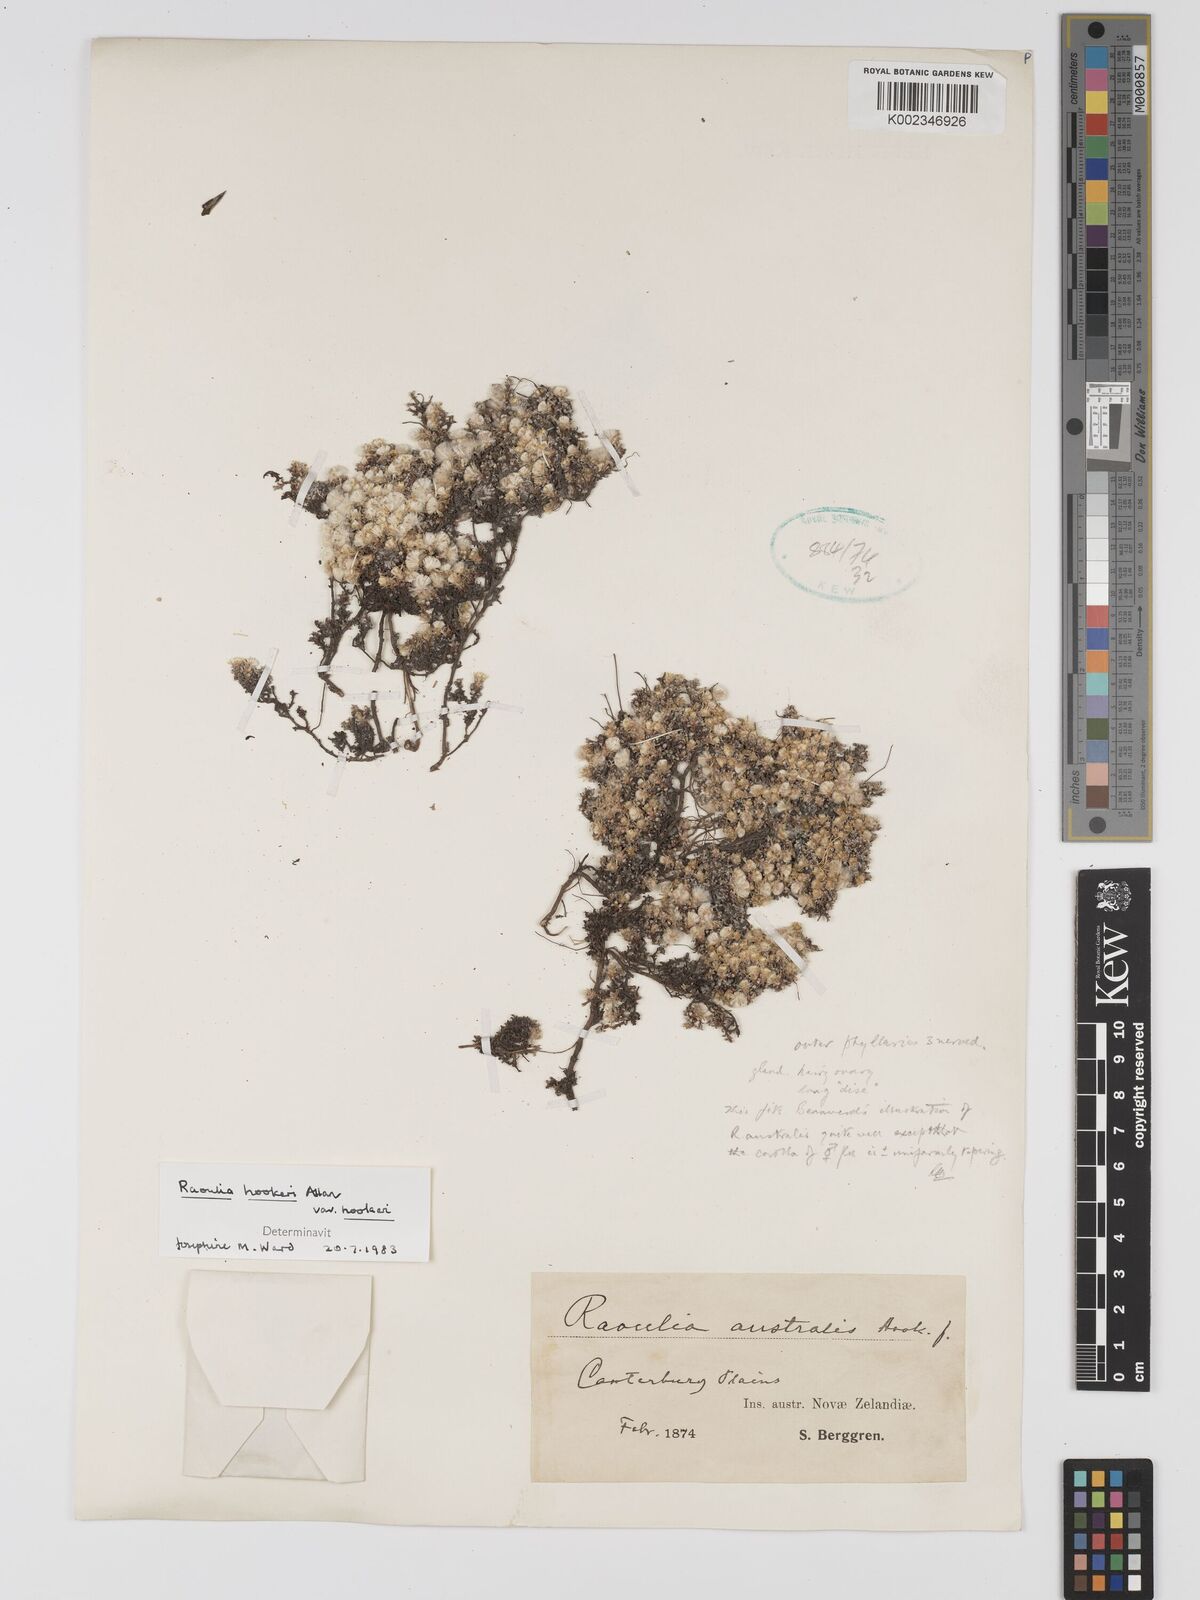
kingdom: Plantae
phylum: Tracheophyta
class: Magnoliopsida
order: Asterales
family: Asteraceae
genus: Raoulia
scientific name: Raoulia hookeri
